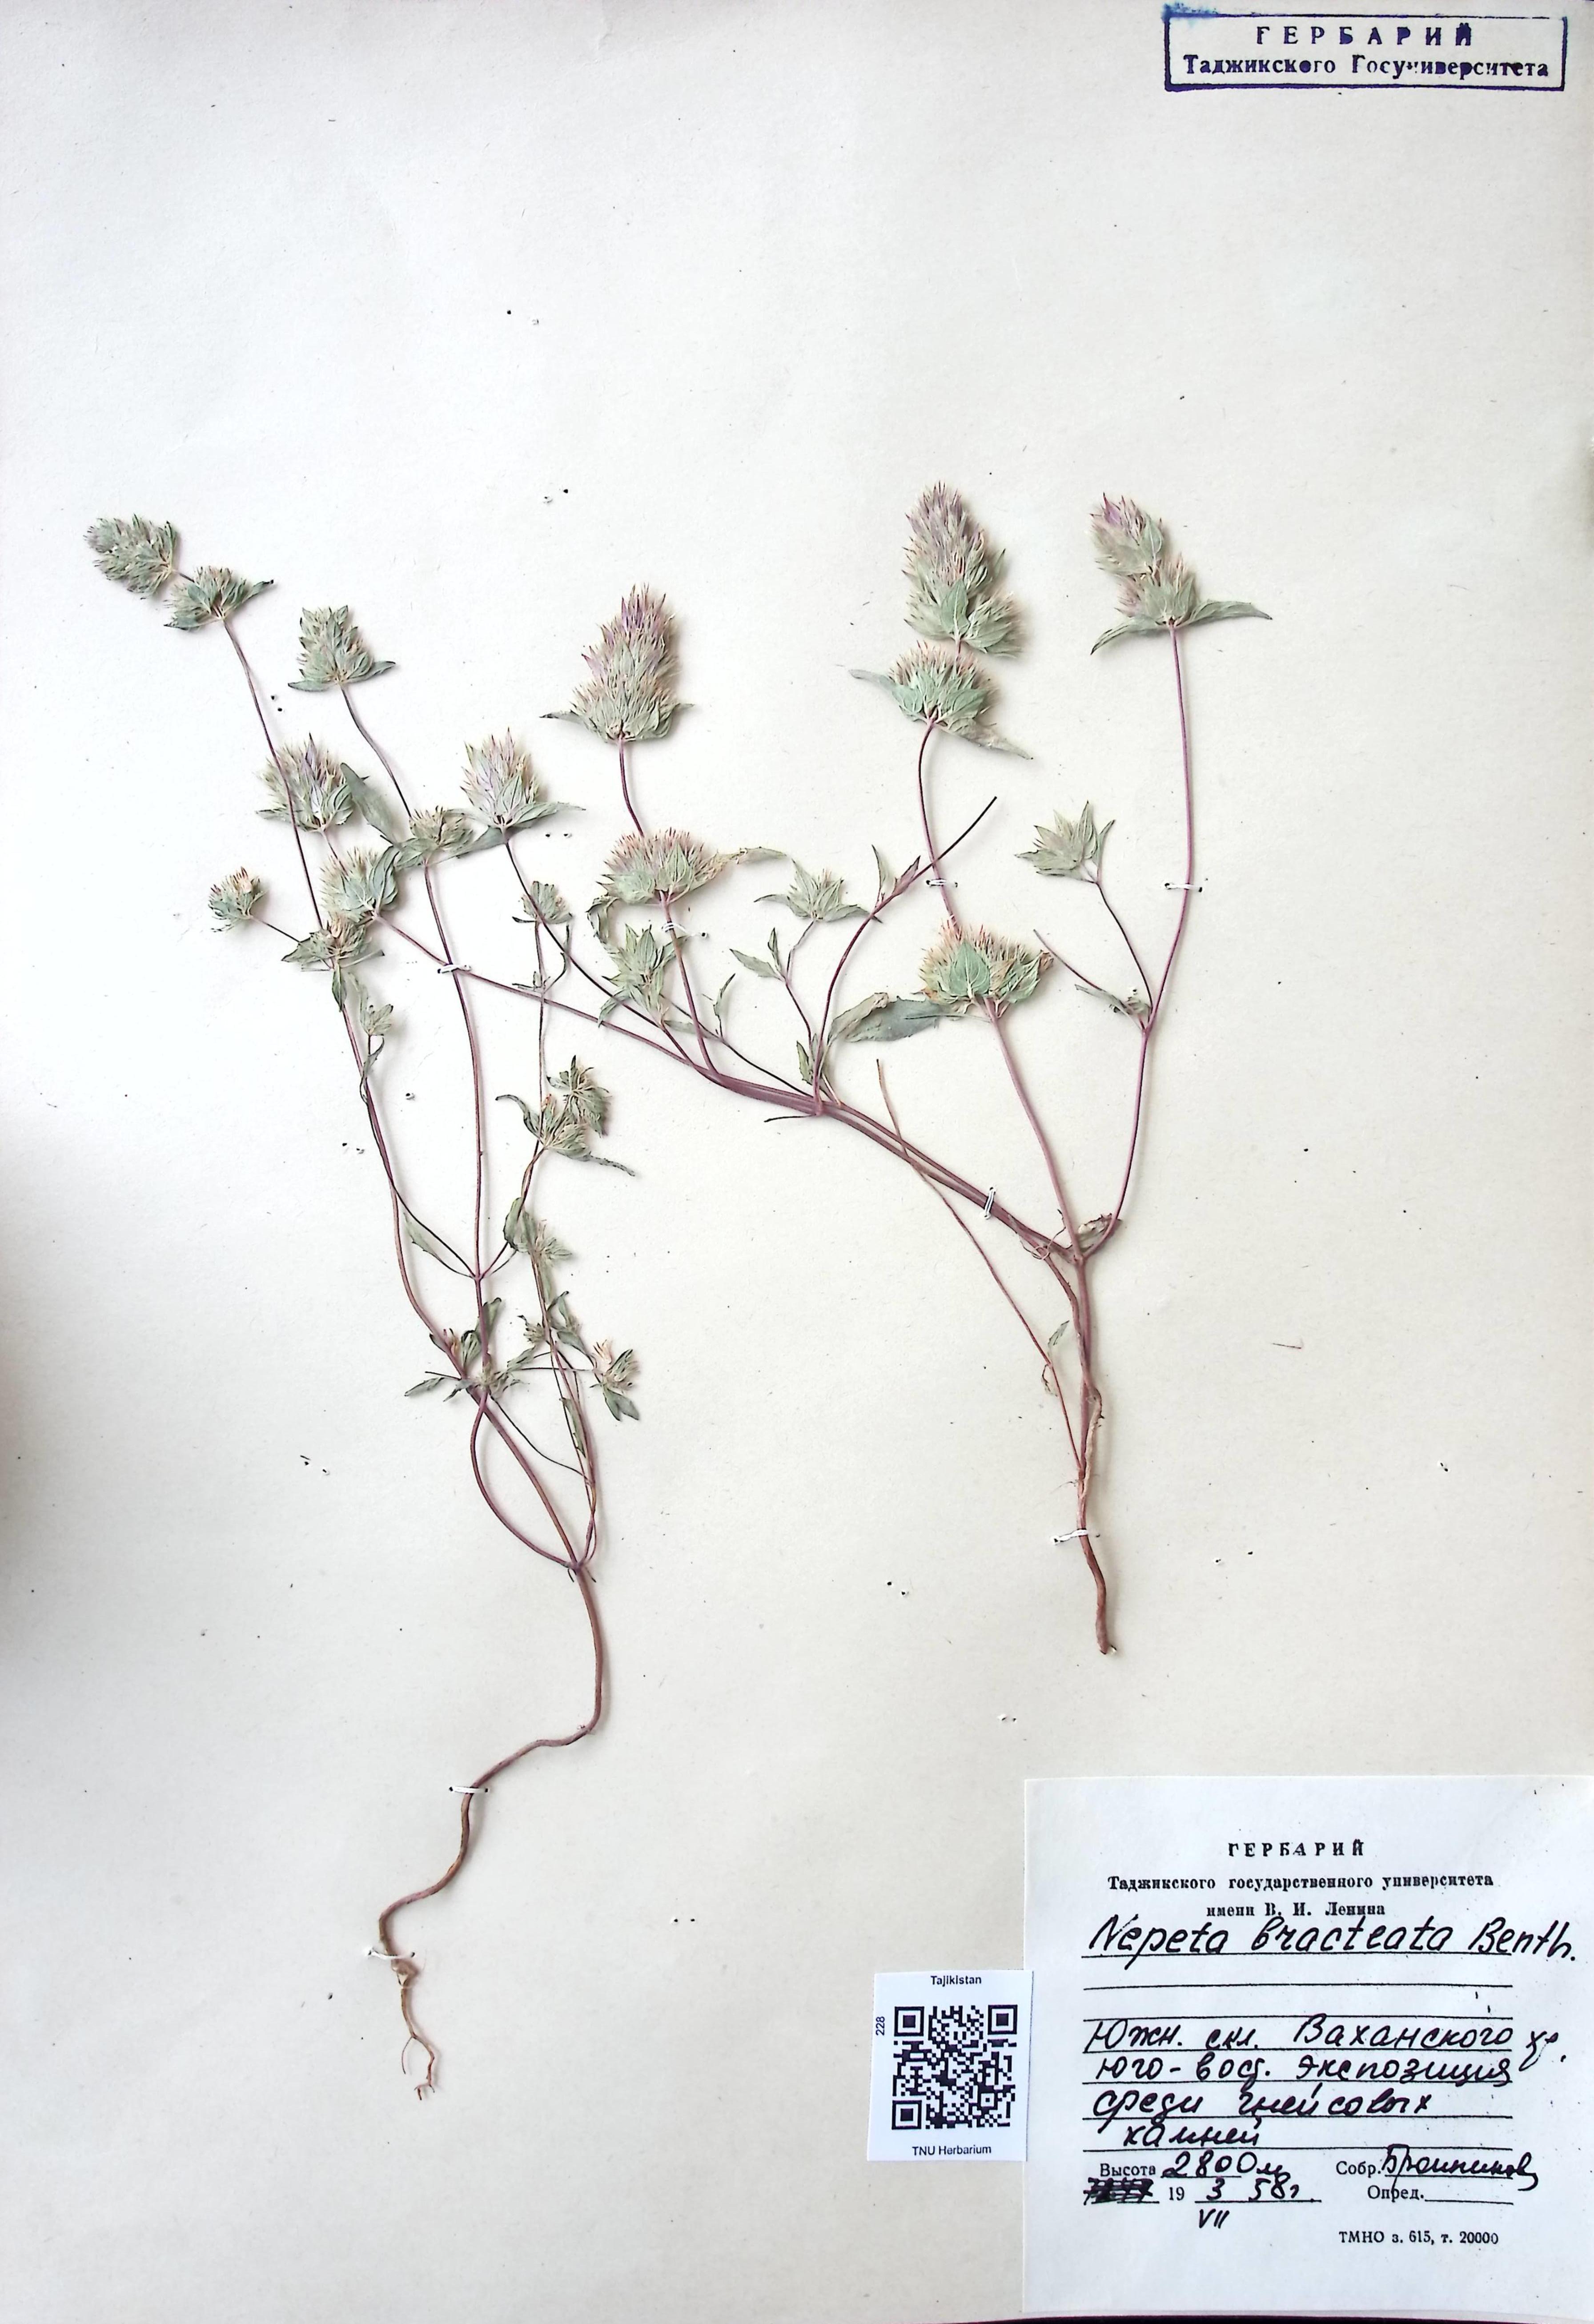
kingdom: Plantae
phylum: Tracheophyta
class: Magnoliopsida
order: Lamiales
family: Lamiaceae
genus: Nepeta
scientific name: Nepeta bracteata
